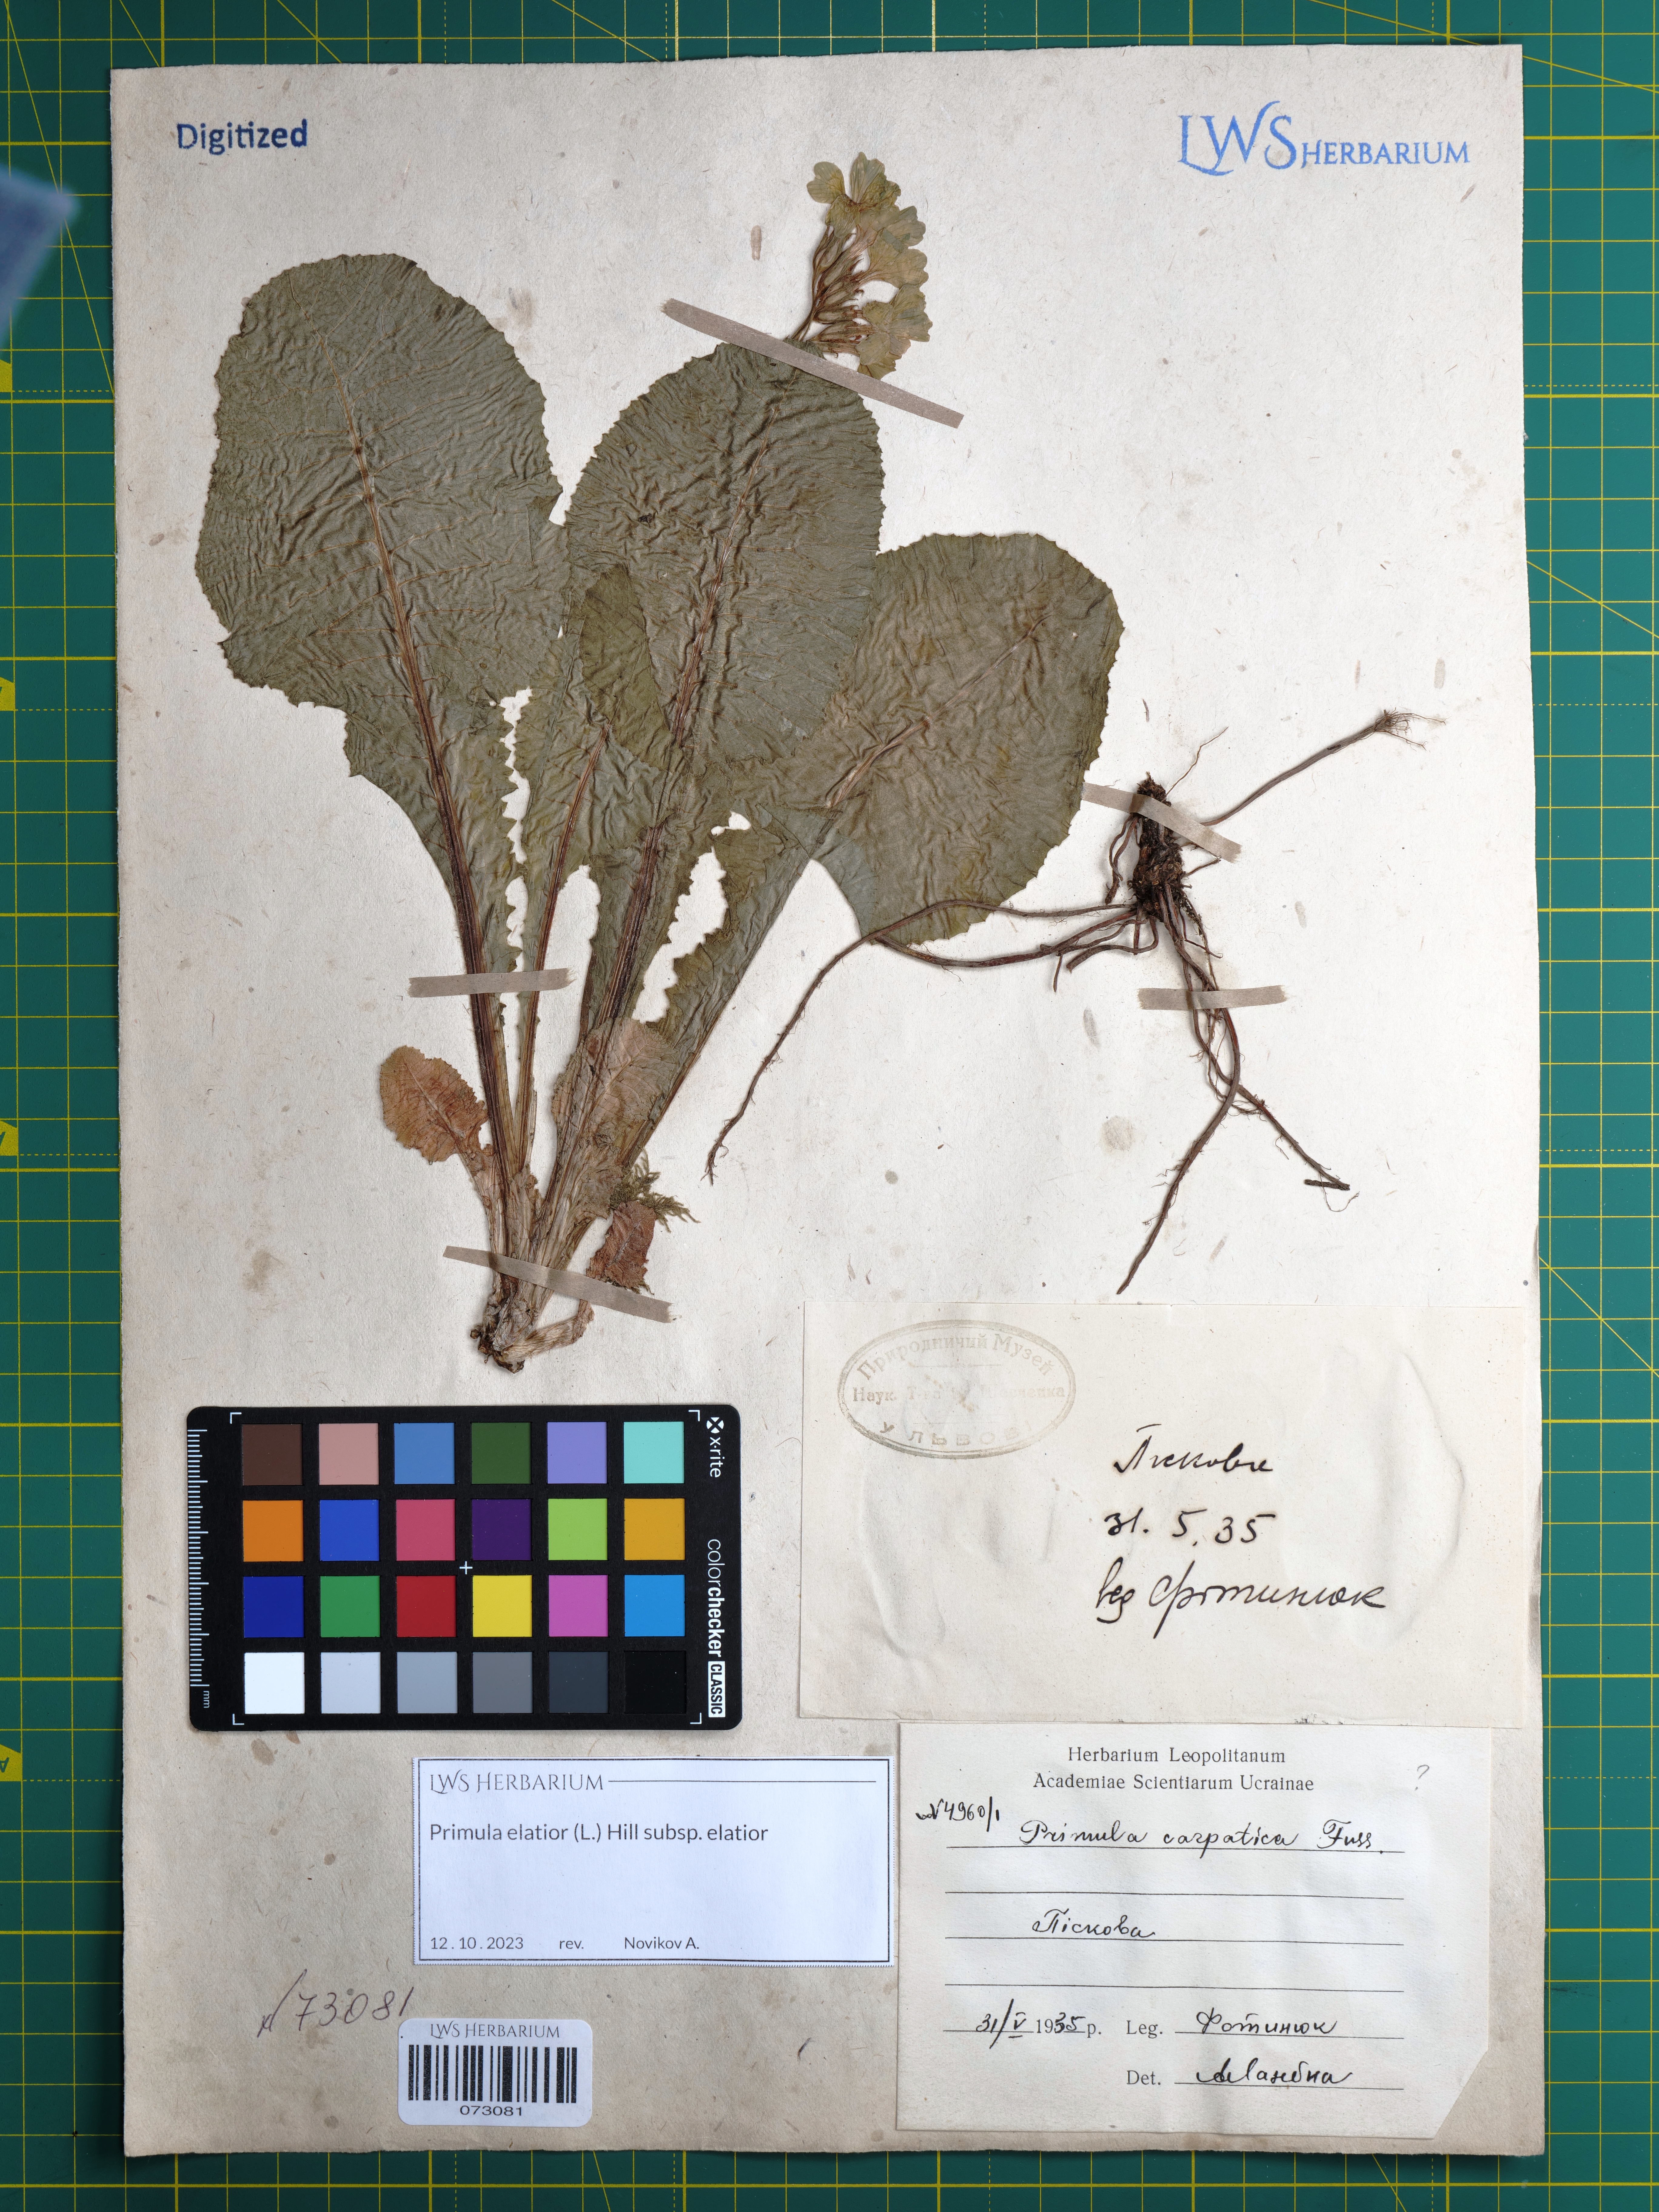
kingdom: Plantae
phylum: Tracheophyta
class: Magnoliopsida
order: Ericales
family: Primulaceae
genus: Primula
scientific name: Primula elatior
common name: Oxlip
